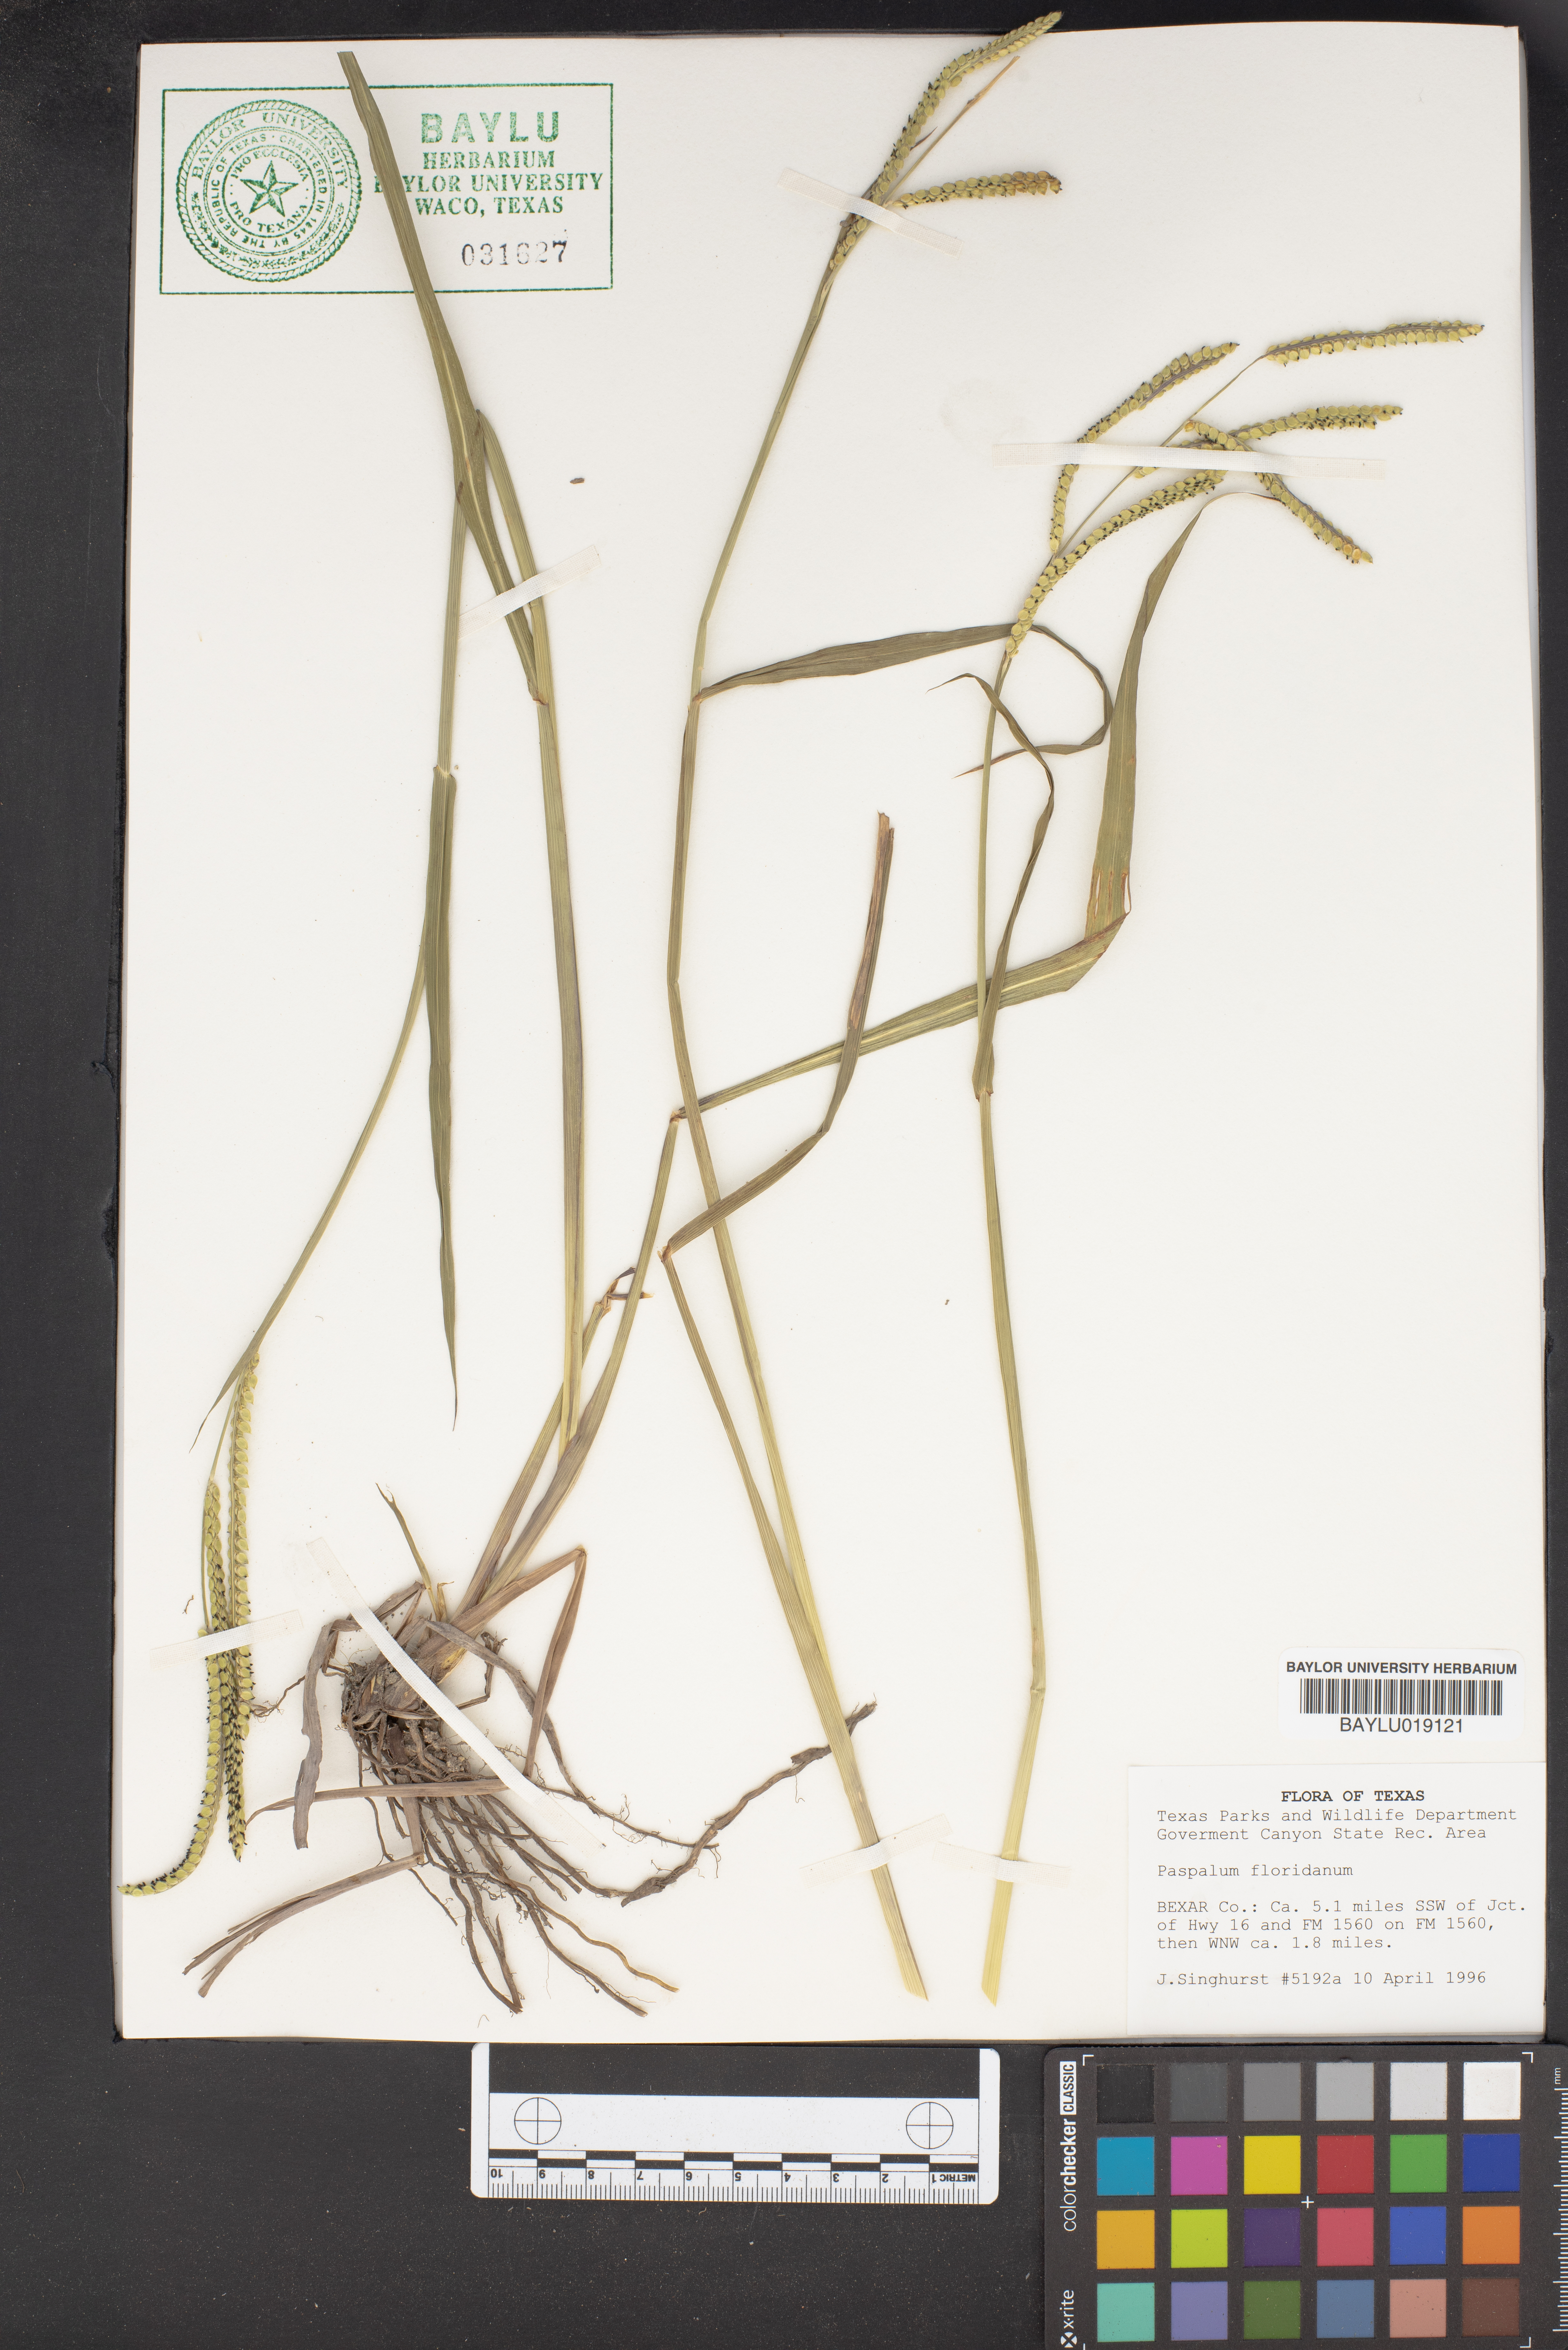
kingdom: Plantae
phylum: Tracheophyta
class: Liliopsida
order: Poales
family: Poaceae
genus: Paspalum
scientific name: Paspalum floridanum
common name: Florida paspalum
